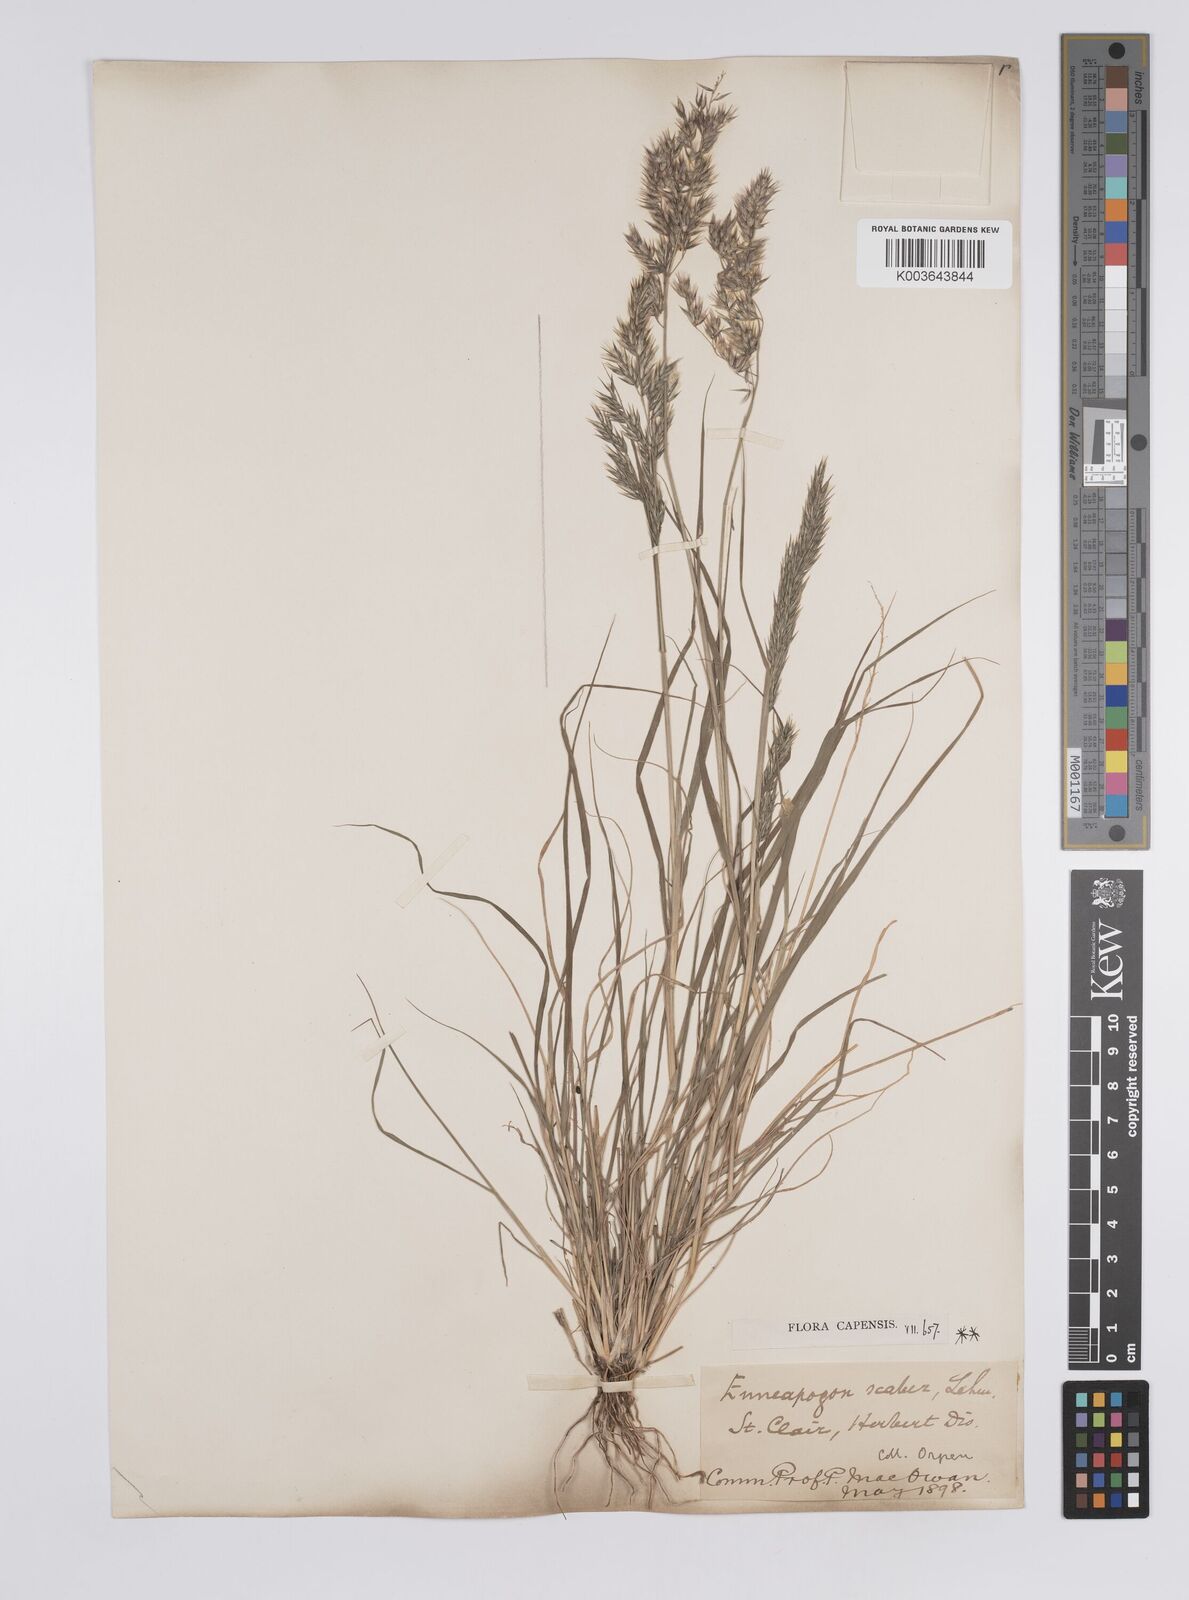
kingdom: Plantae
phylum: Tracheophyta
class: Liliopsida
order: Poales
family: Poaceae
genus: Enneapogon
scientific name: Enneapogon scaber
